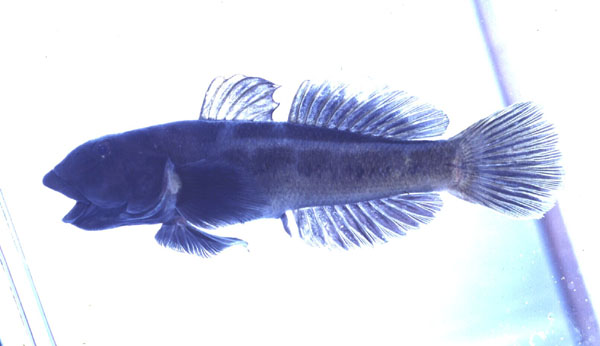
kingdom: Animalia
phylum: Chordata
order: Perciformes
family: Gobiidae
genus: Awaous
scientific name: Awaous commersoni
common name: Commerson’s freshwater goby
